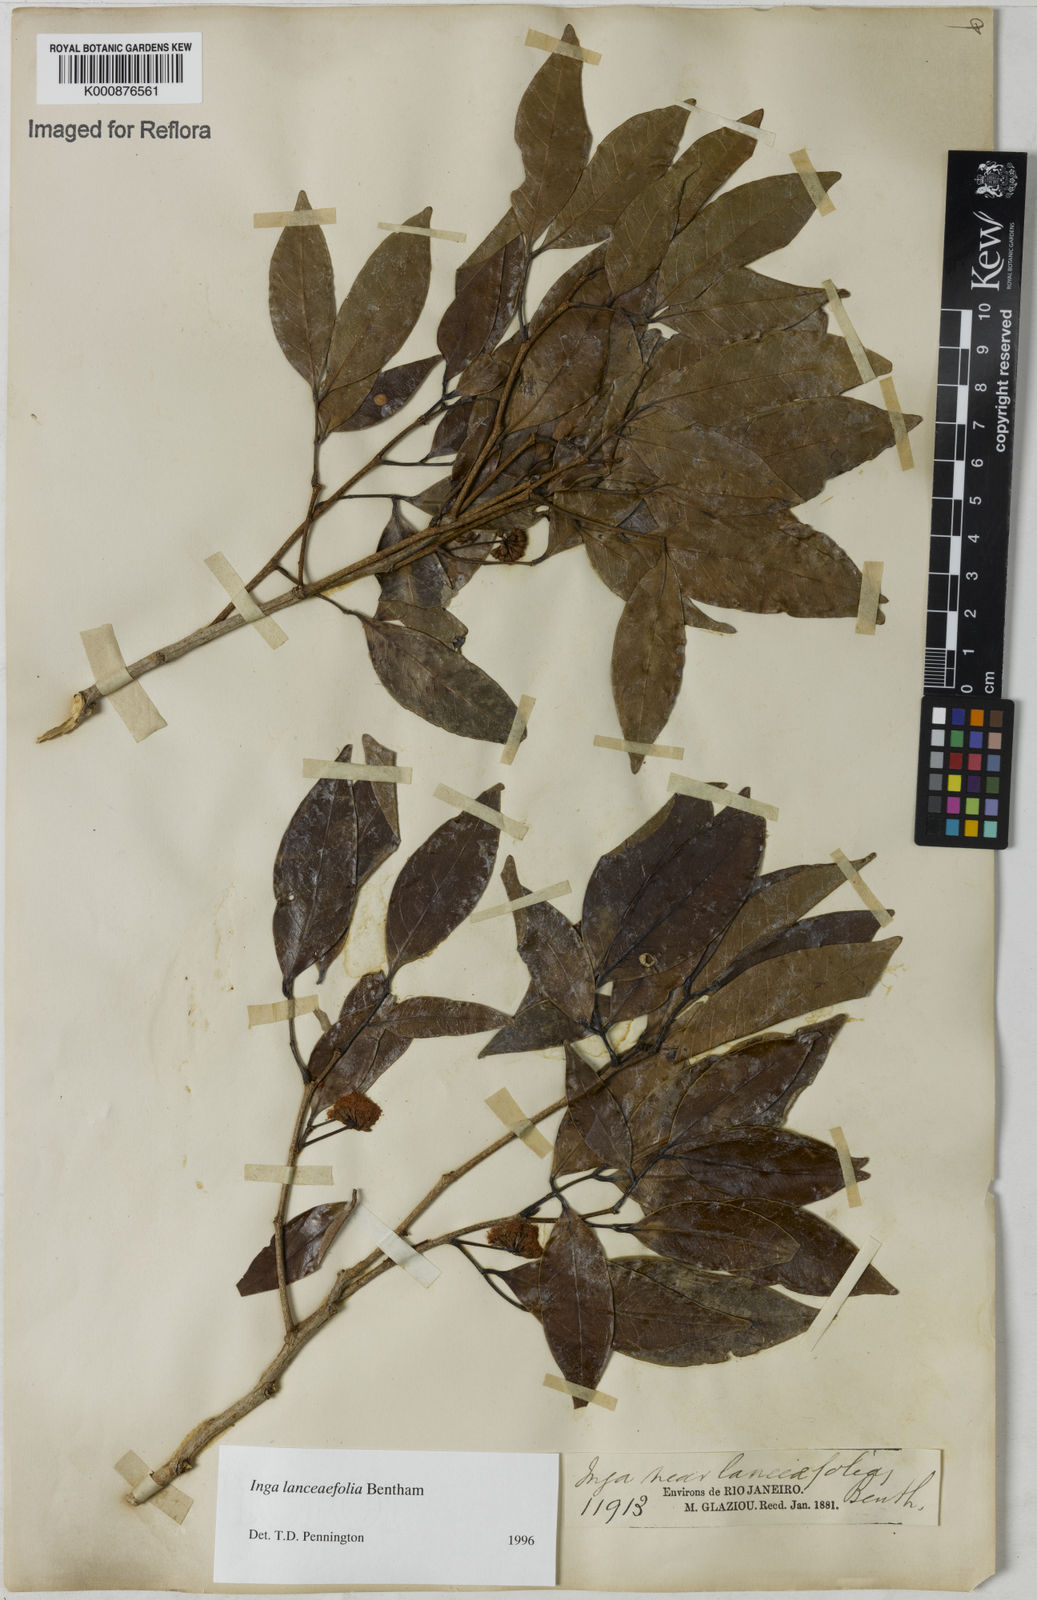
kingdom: Plantae
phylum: Tracheophyta
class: Magnoliopsida
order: Fabales
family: Fabaceae
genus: Inga
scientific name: Inga lanceifolia
